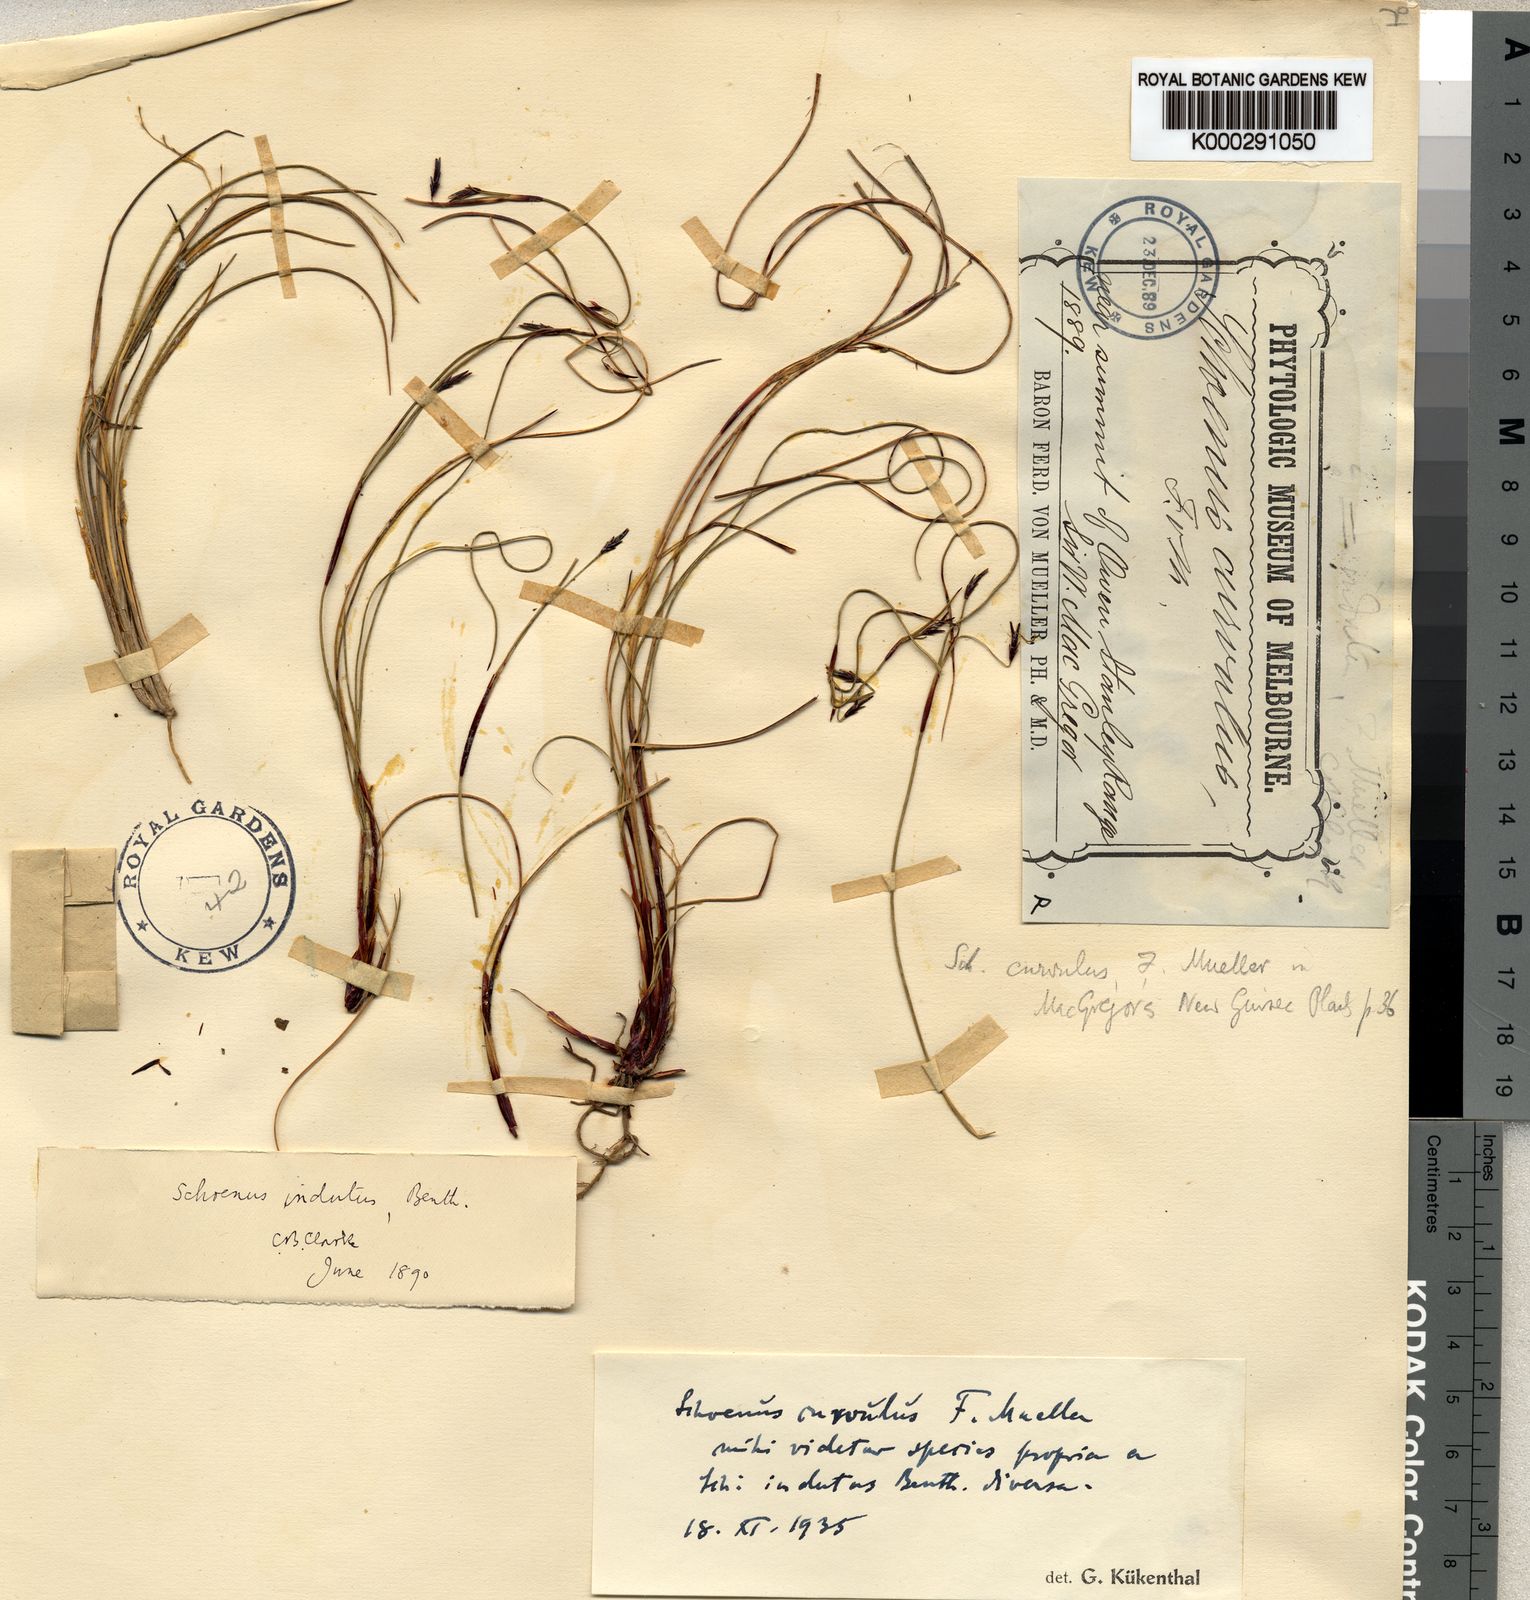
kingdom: Plantae
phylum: Tracheophyta
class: Liliopsida
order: Poales
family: Cyperaceae
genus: Schoenus
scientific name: Schoenus curvulus
